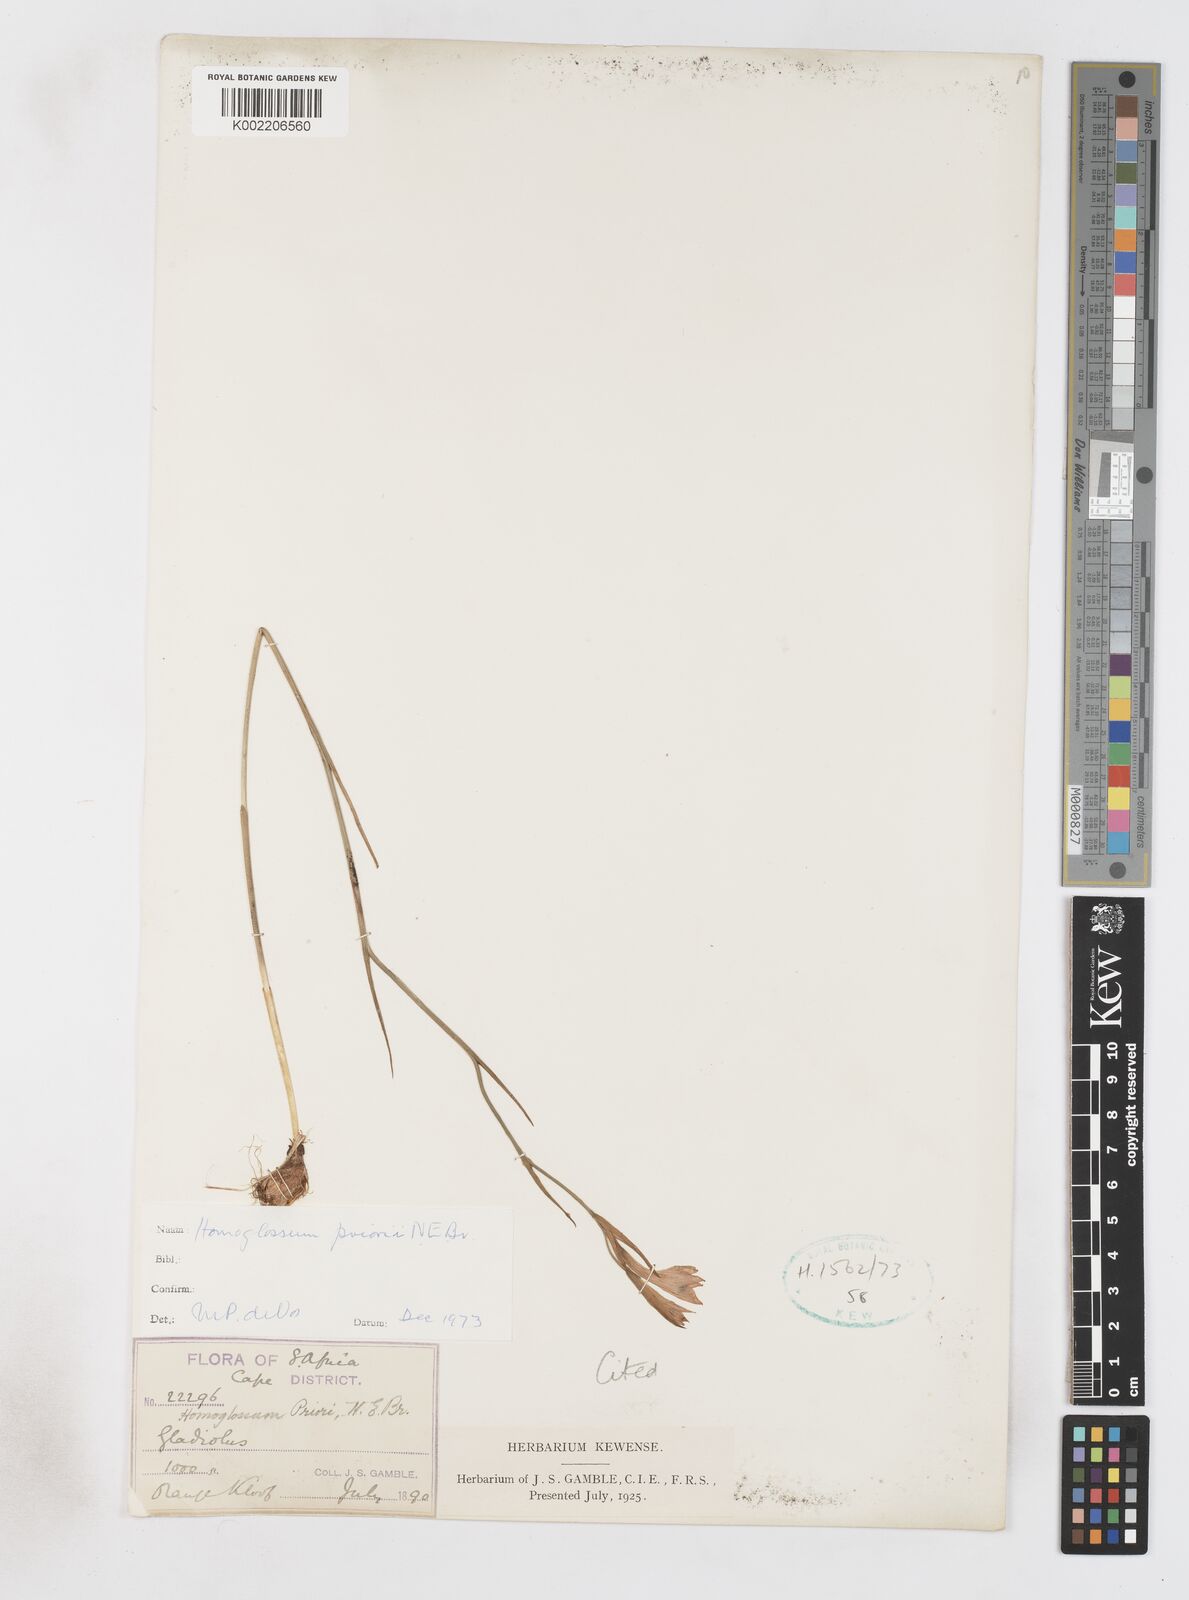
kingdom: Plantae
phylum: Tracheophyta
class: Liliopsida
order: Asparagales
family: Iridaceae
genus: Gladiolus
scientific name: Gladiolus priorii
